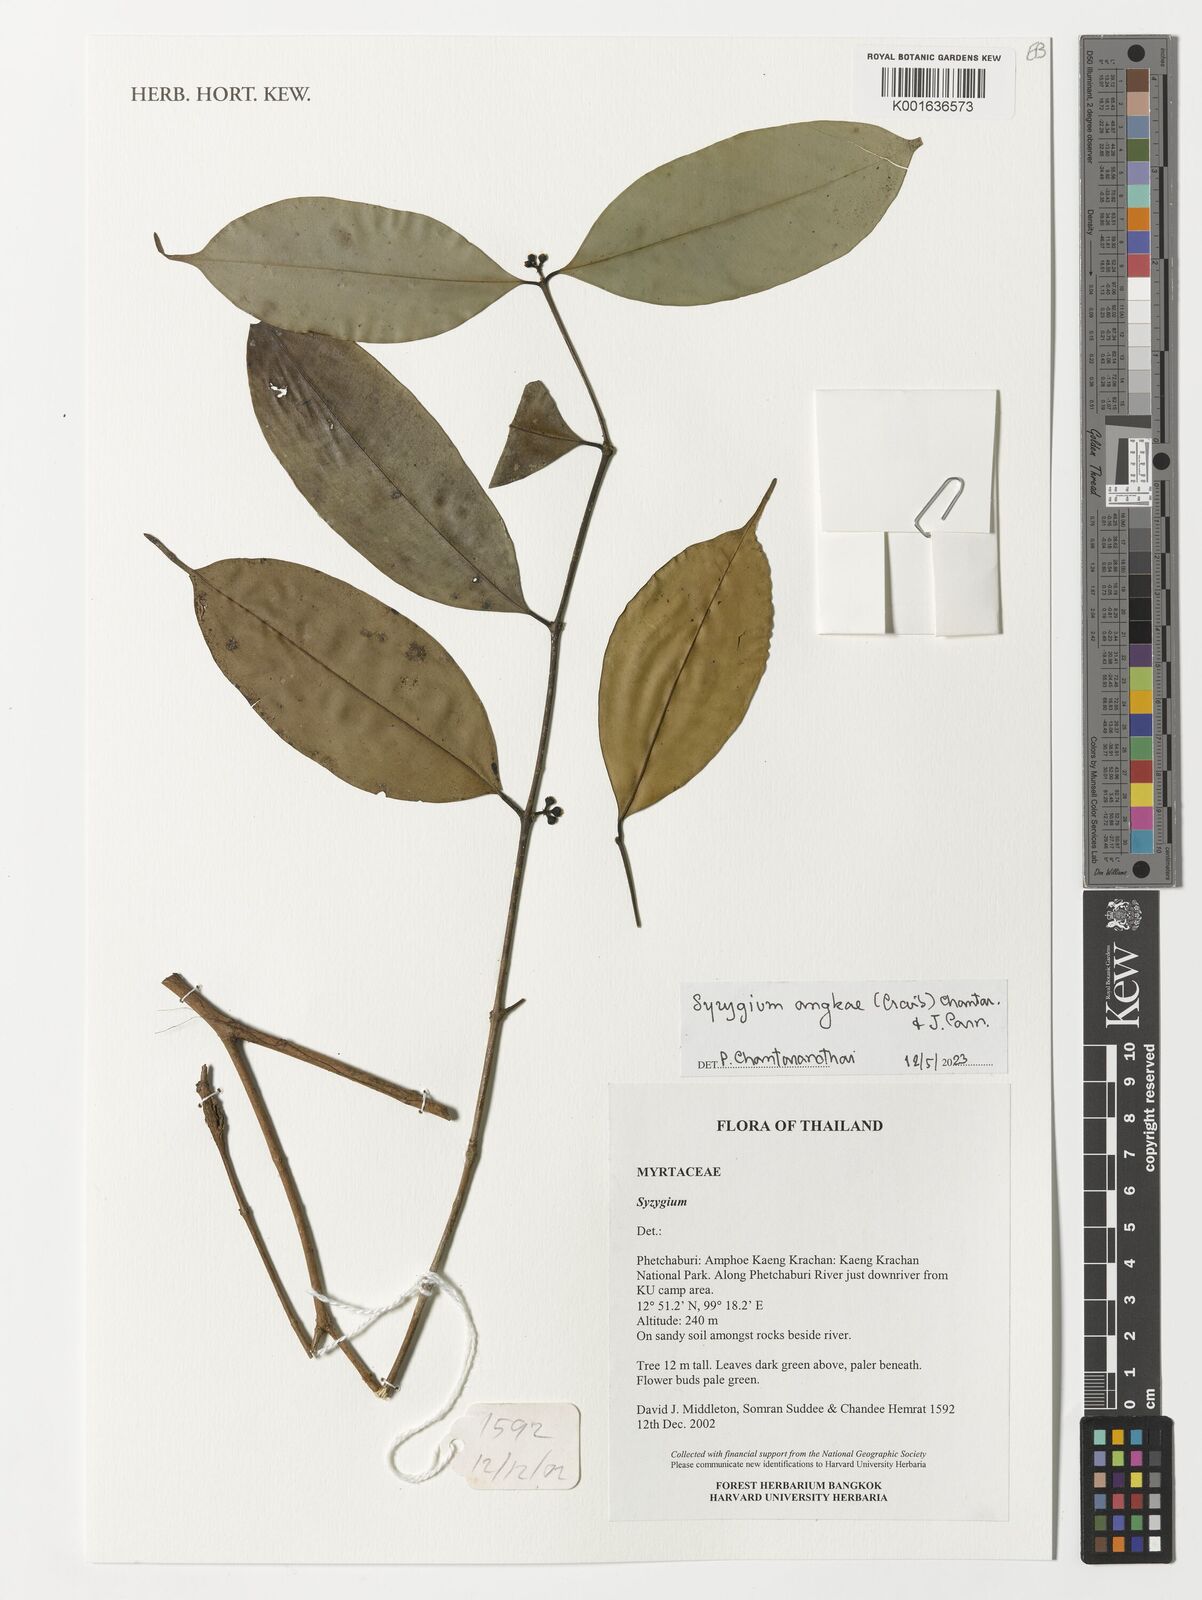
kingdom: Plantae
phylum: Tracheophyta
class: Magnoliopsida
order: Myrtales
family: Myrtaceae
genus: Syzygium
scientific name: Syzygium angkae
